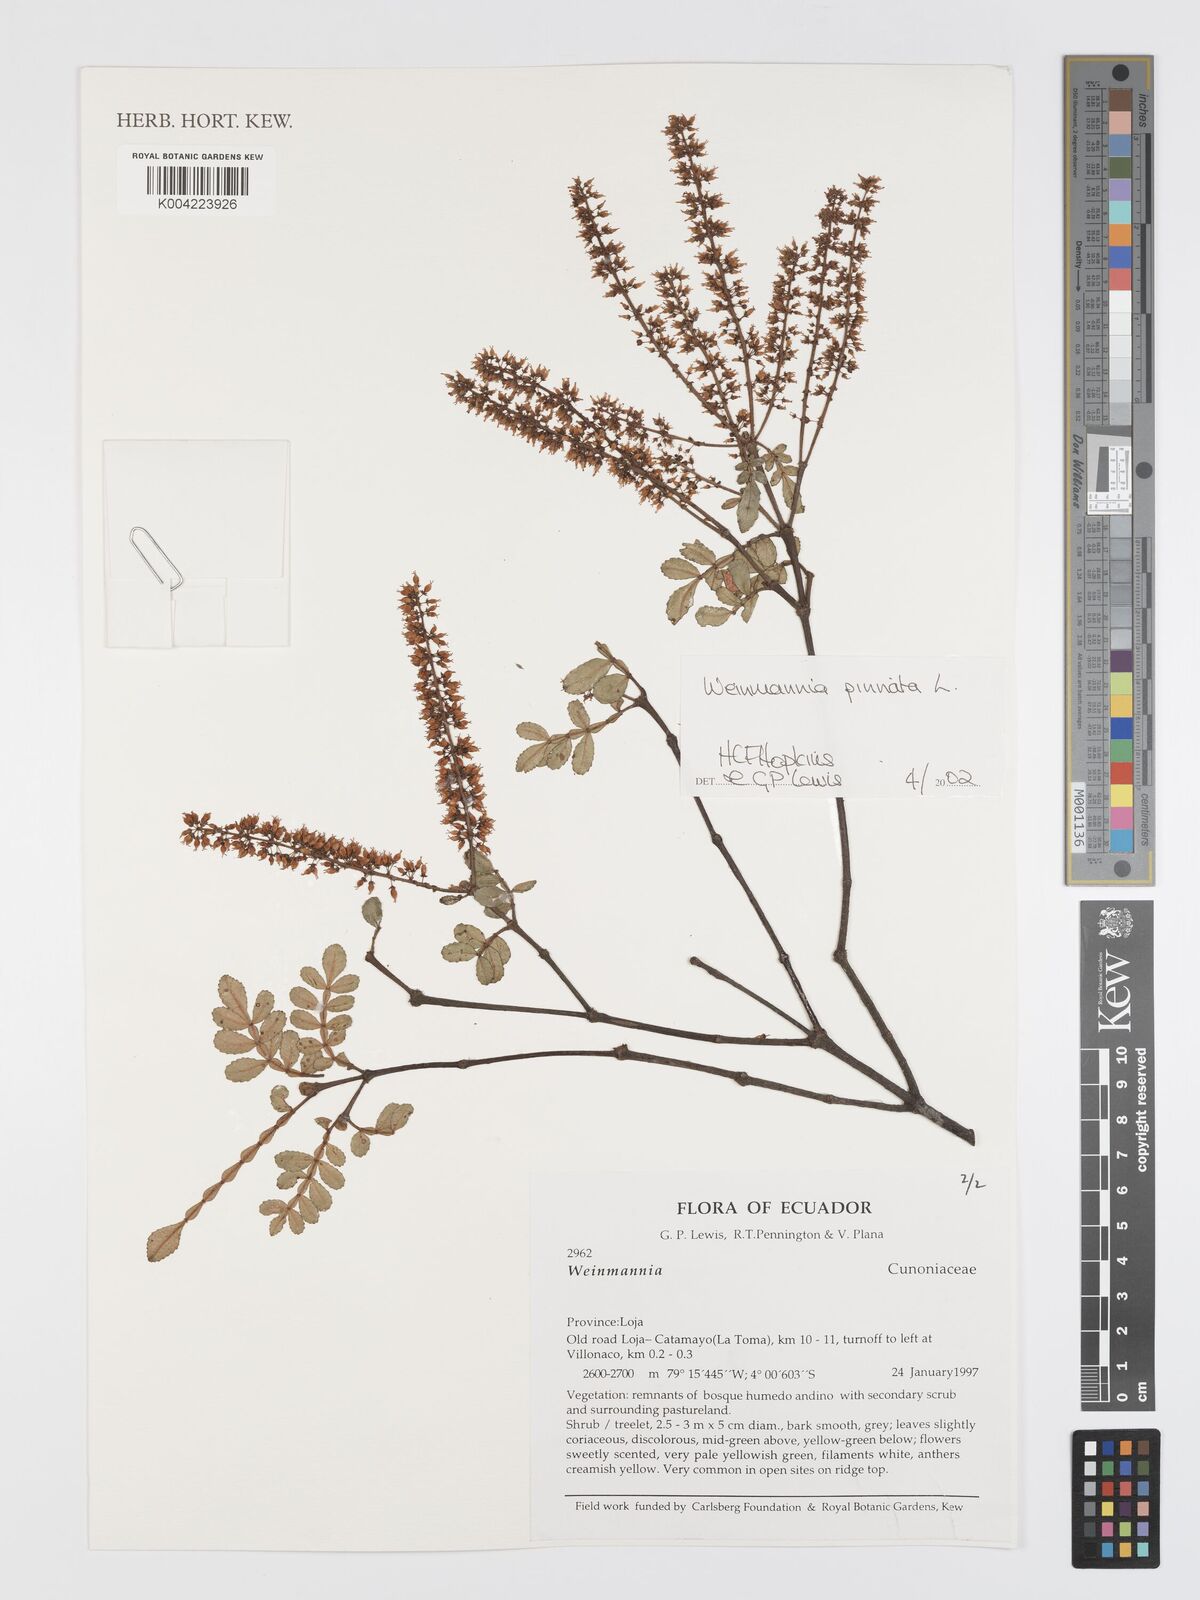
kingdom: Plantae
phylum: Tracheophyta
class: Magnoliopsida
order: Oxalidales
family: Cunoniaceae
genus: Weinmannia
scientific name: Weinmannia pinnata
